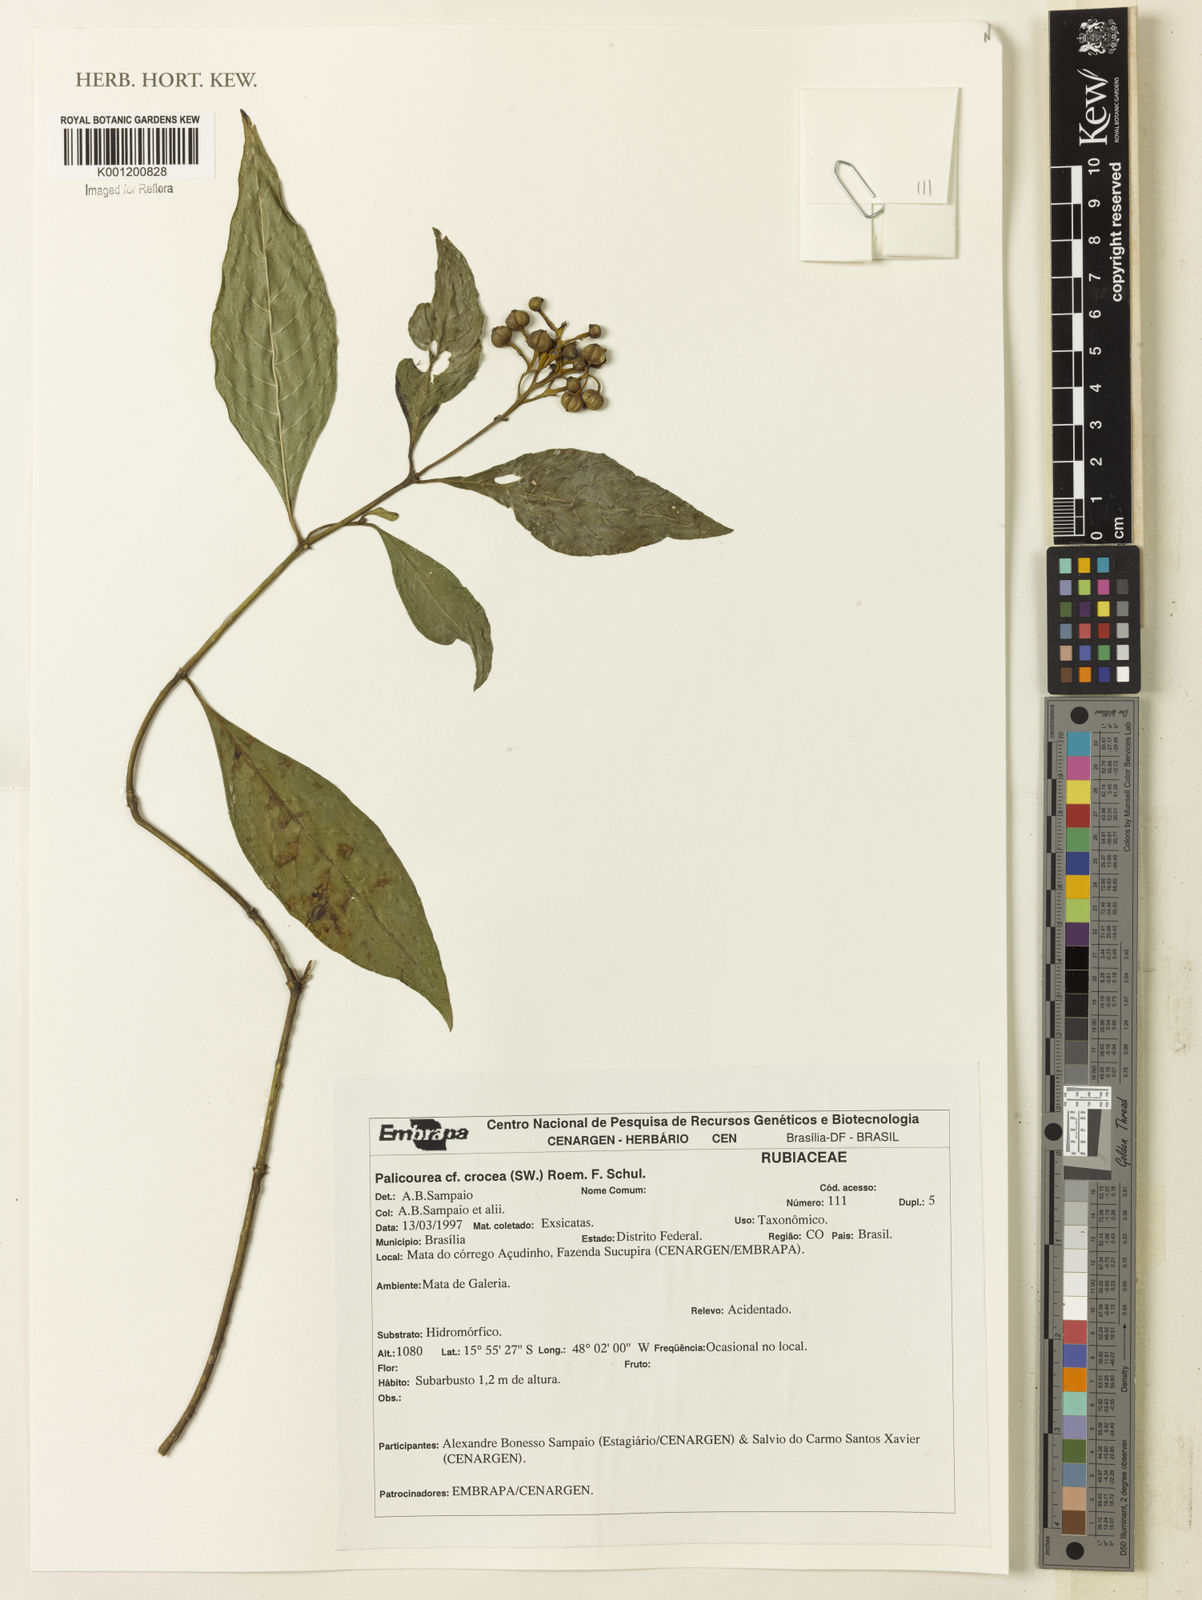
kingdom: Plantae
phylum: Tracheophyta
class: Magnoliopsida
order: Gentianales
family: Rubiaceae
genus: Palicourea
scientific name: Palicourea crocea
